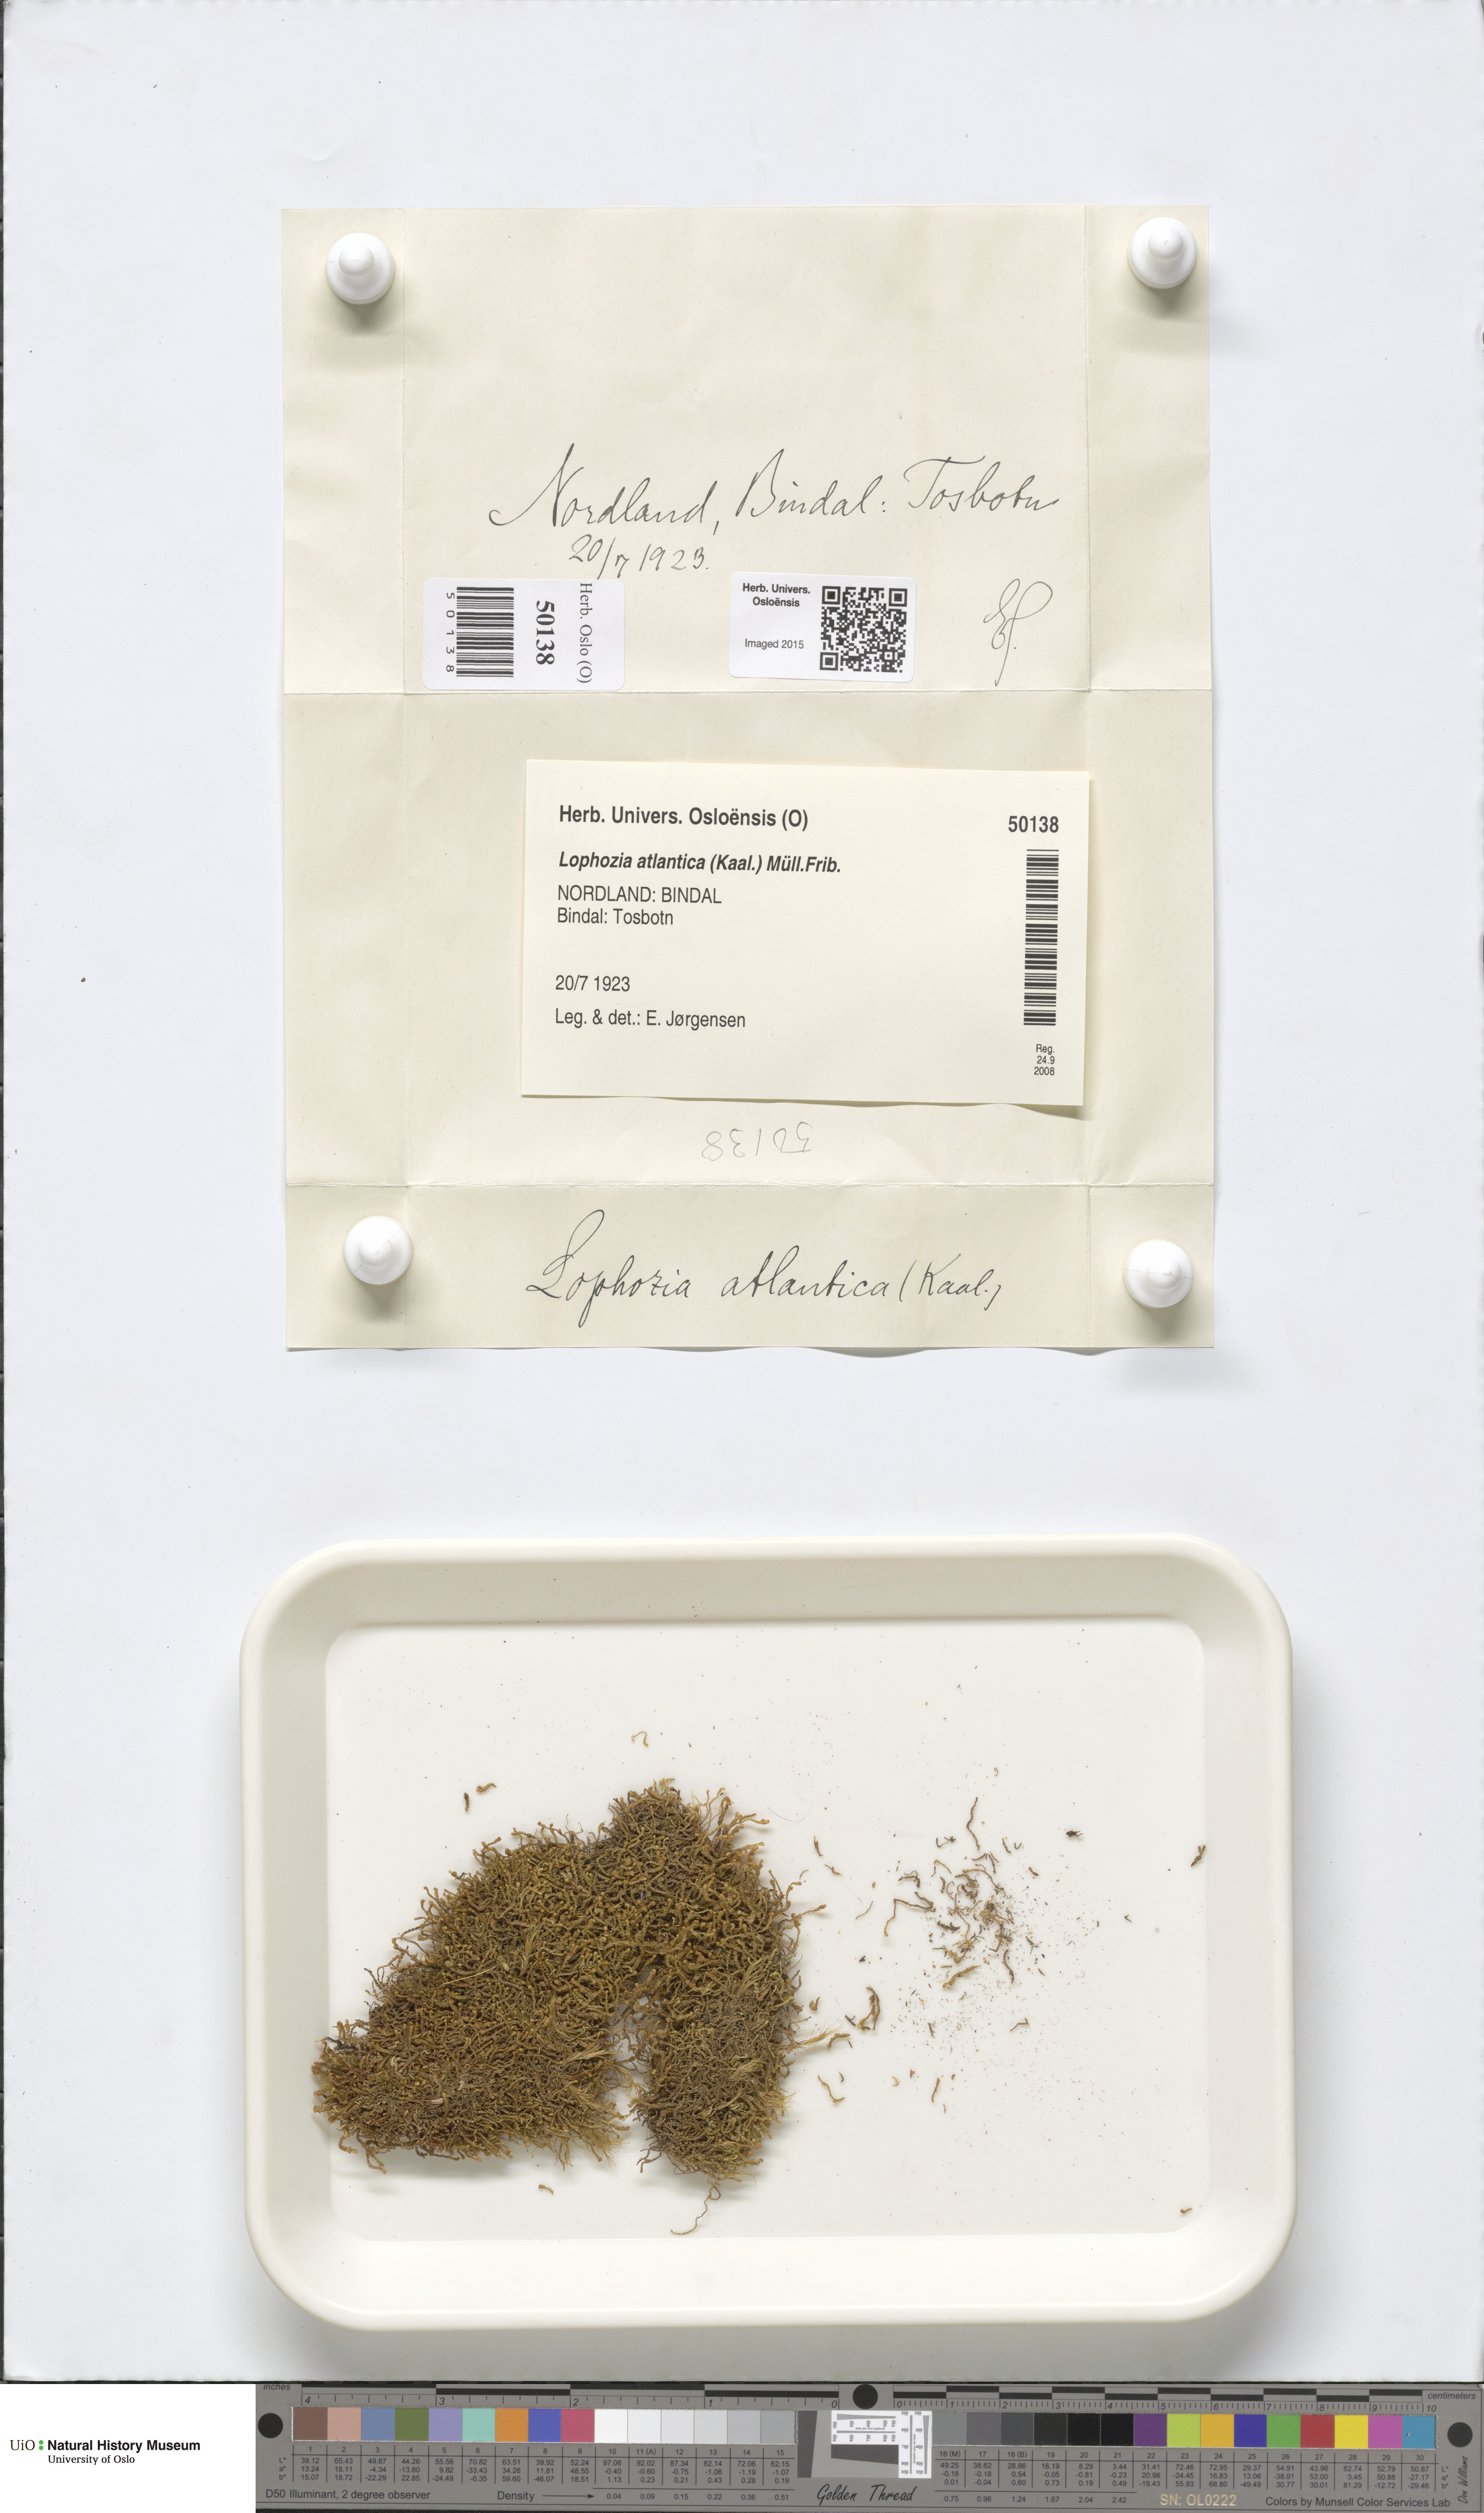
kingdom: Plantae
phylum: Marchantiophyta
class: Jungermanniopsida
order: Jungermanniales
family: Anastrophyllaceae
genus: Orthocaulis
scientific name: Orthocaulis atlanticus
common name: Atlantic pawwort
